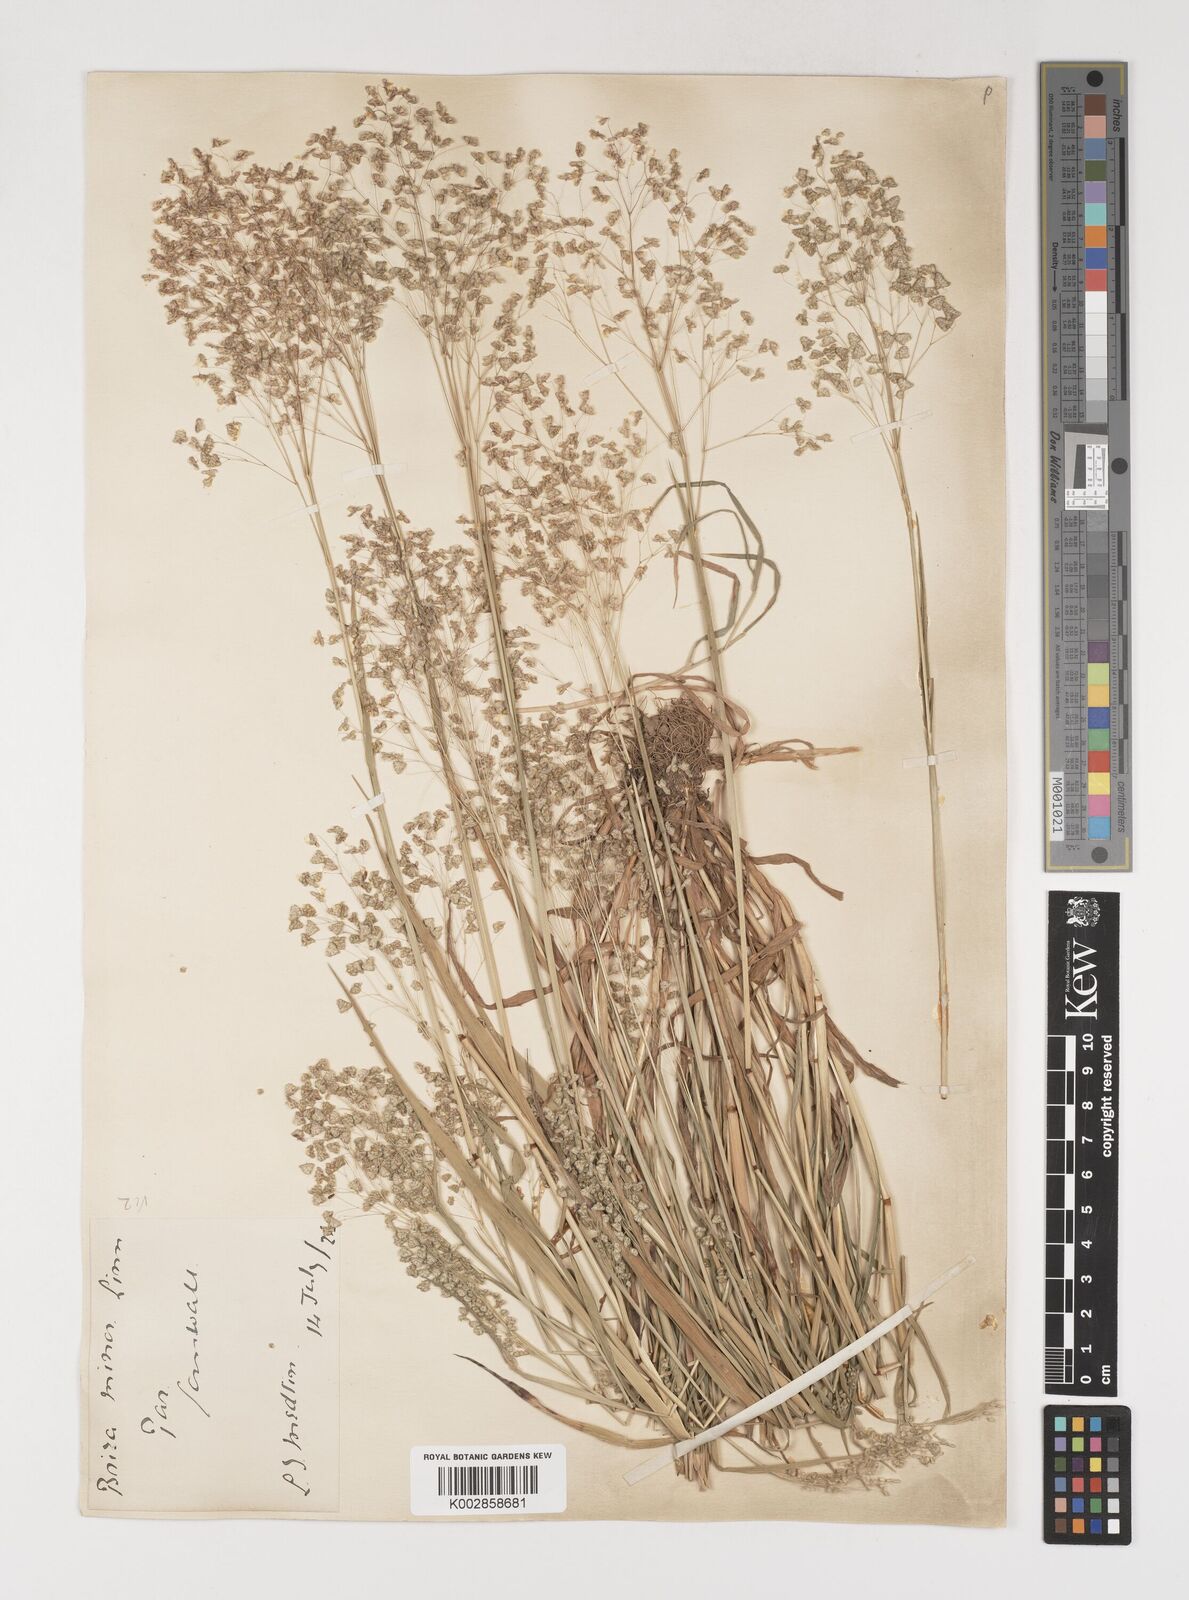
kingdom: Plantae
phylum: Tracheophyta
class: Liliopsida
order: Poales
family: Poaceae
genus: Briza
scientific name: Briza minor
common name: Lesser quaking-grass
